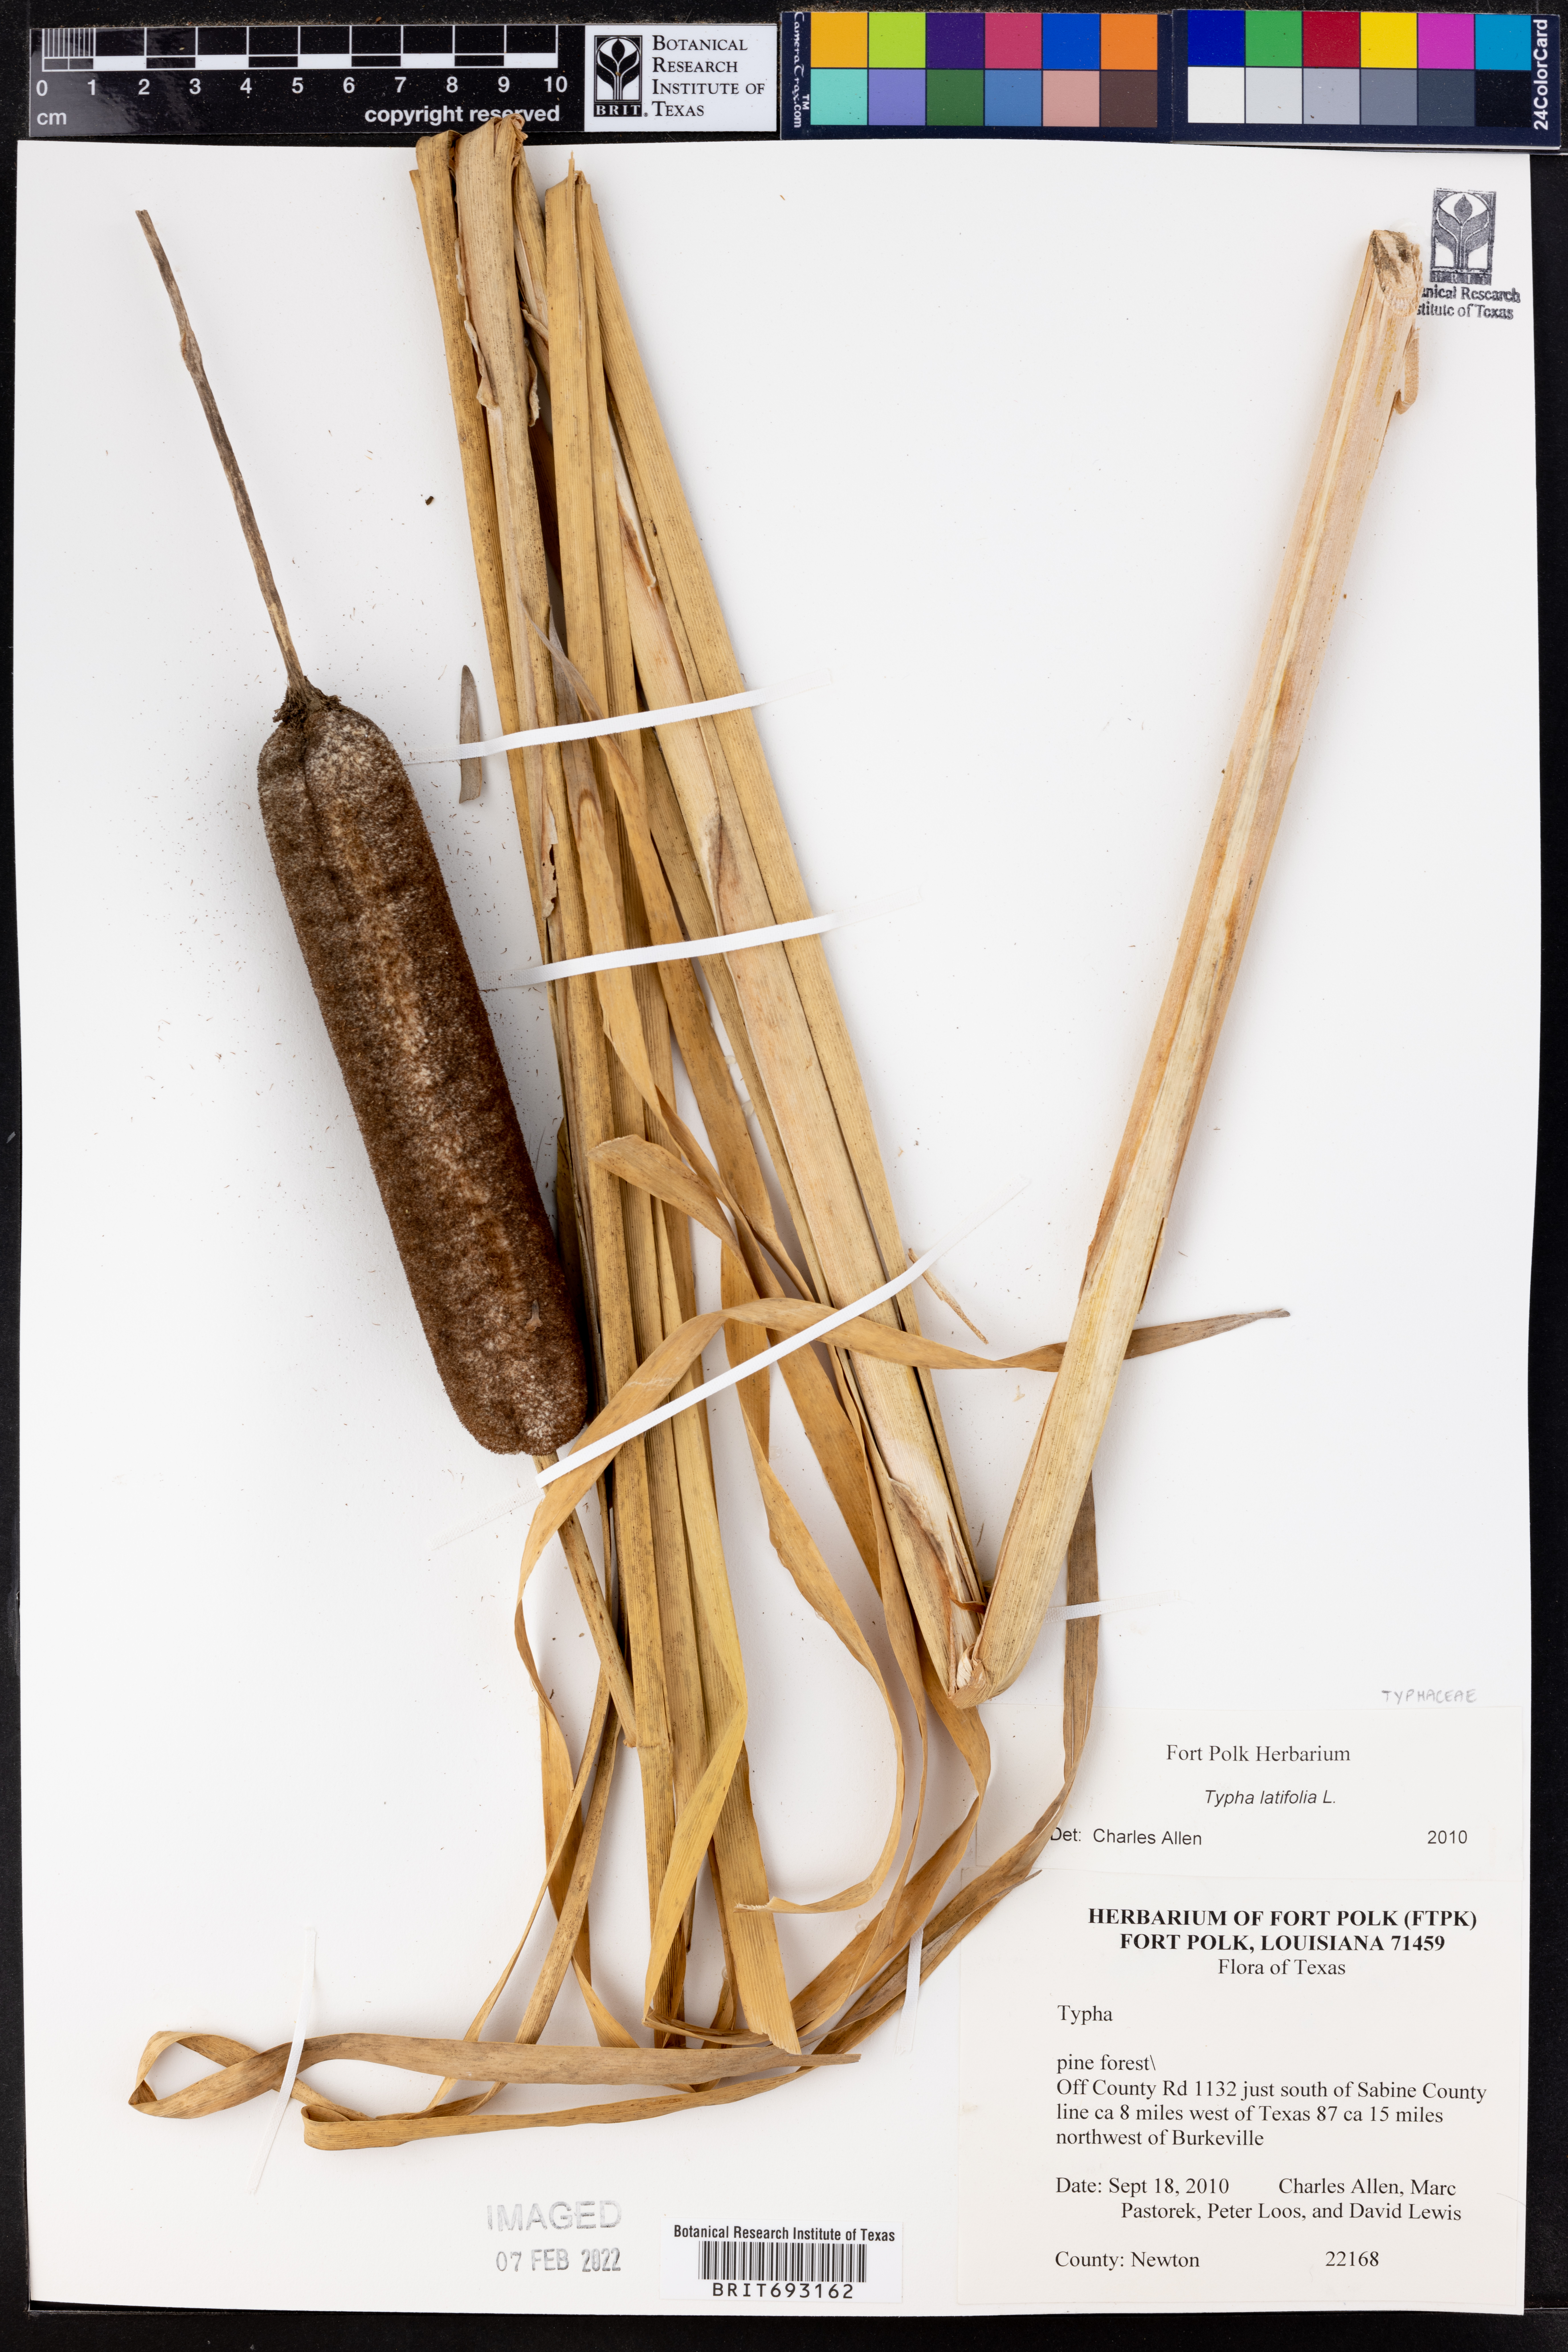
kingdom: Plantae
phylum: Tracheophyta
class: Liliopsida
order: Poales
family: Typhaceae
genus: Typha
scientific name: Typha latifolia
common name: Broadleaf cattail
